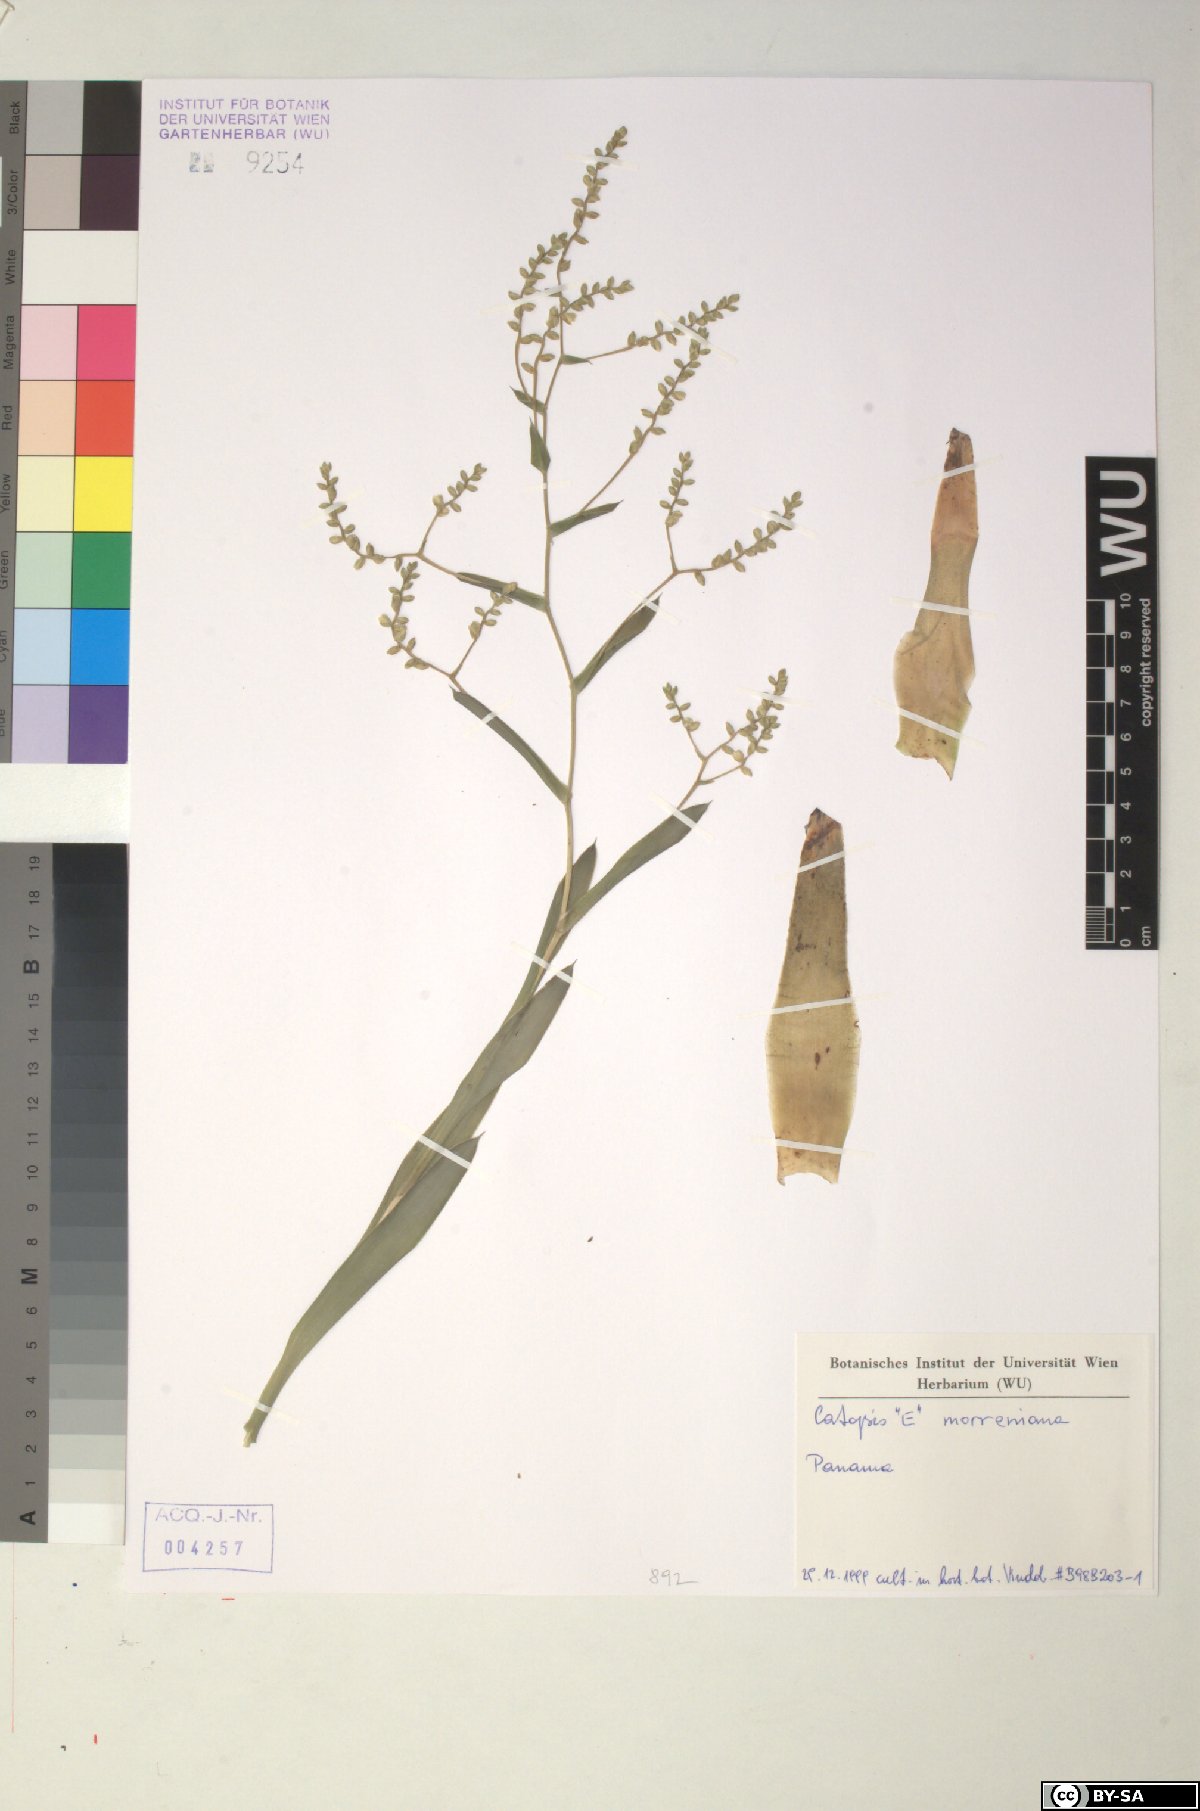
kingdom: Plantae
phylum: Tracheophyta
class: Liliopsida
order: Poales
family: Bromeliaceae
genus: Catopsis
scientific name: Catopsis morreniana
